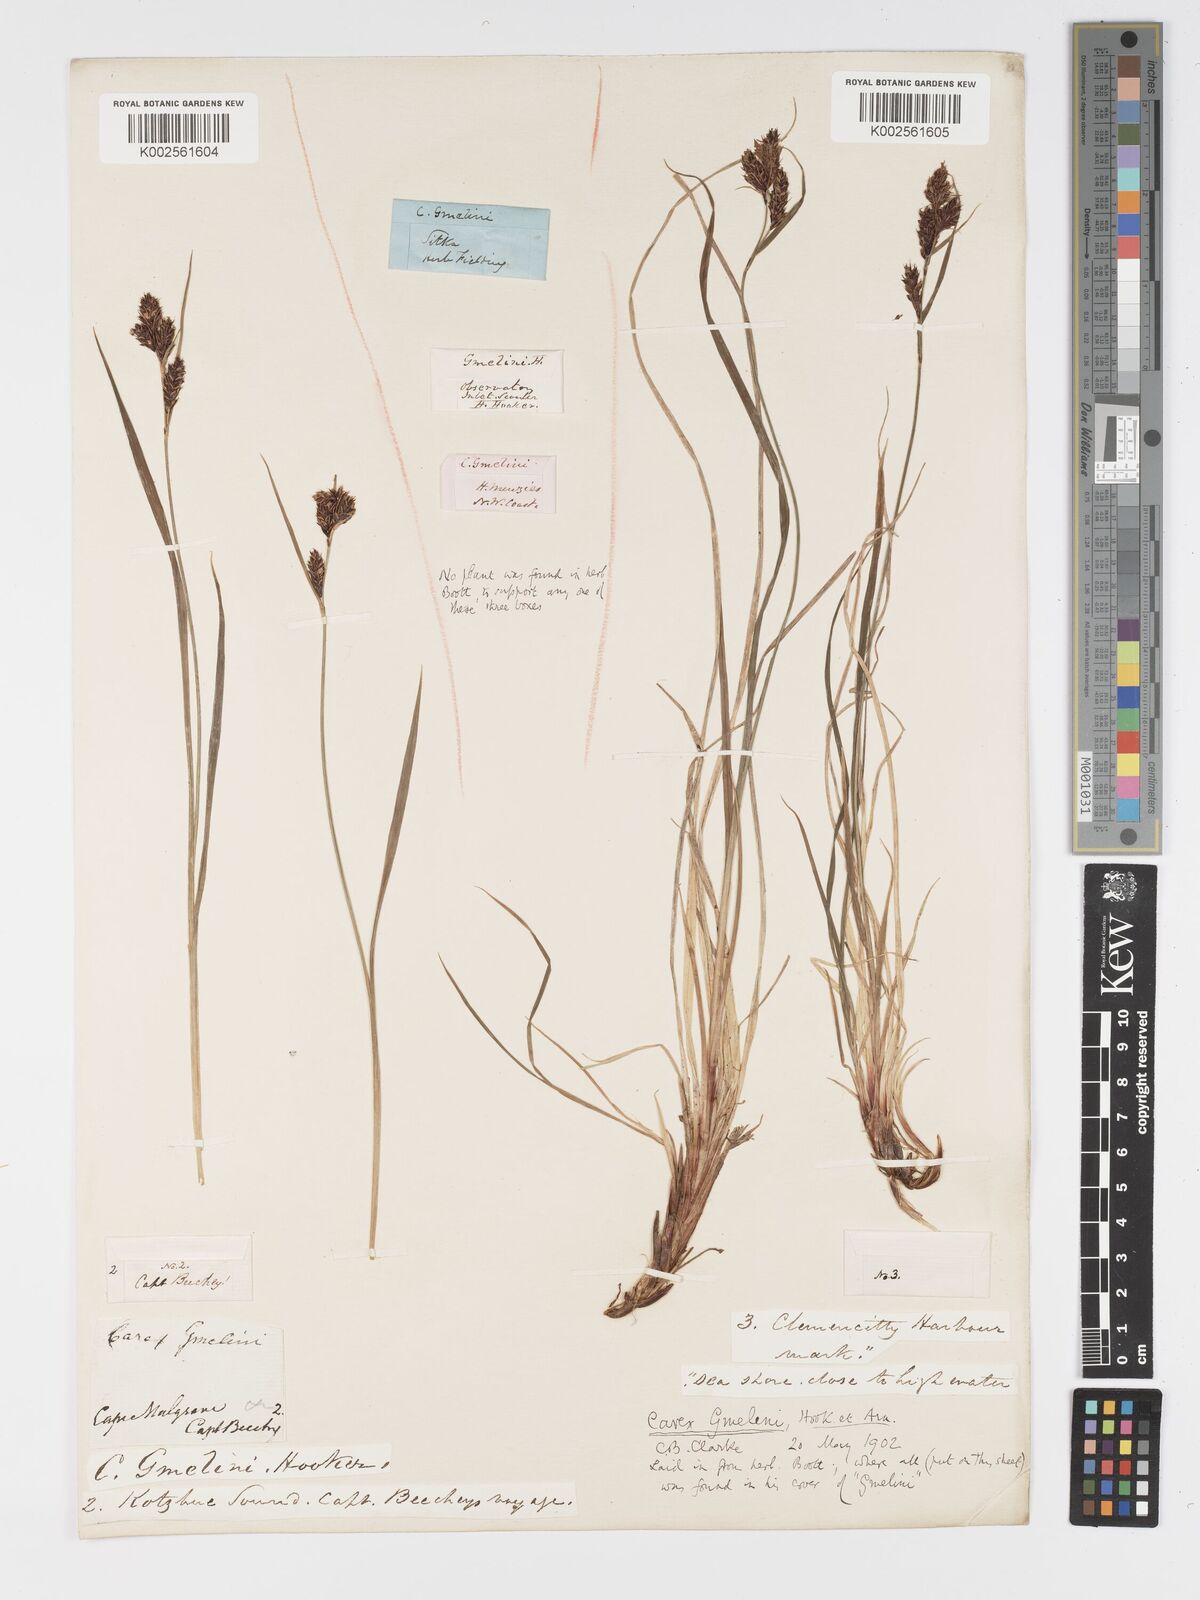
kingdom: Plantae
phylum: Tracheophyta
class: Liliopsida
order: Poales
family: Cyperaceae
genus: Carex
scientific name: Carex gmelinii
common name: Gmelin's sedge
